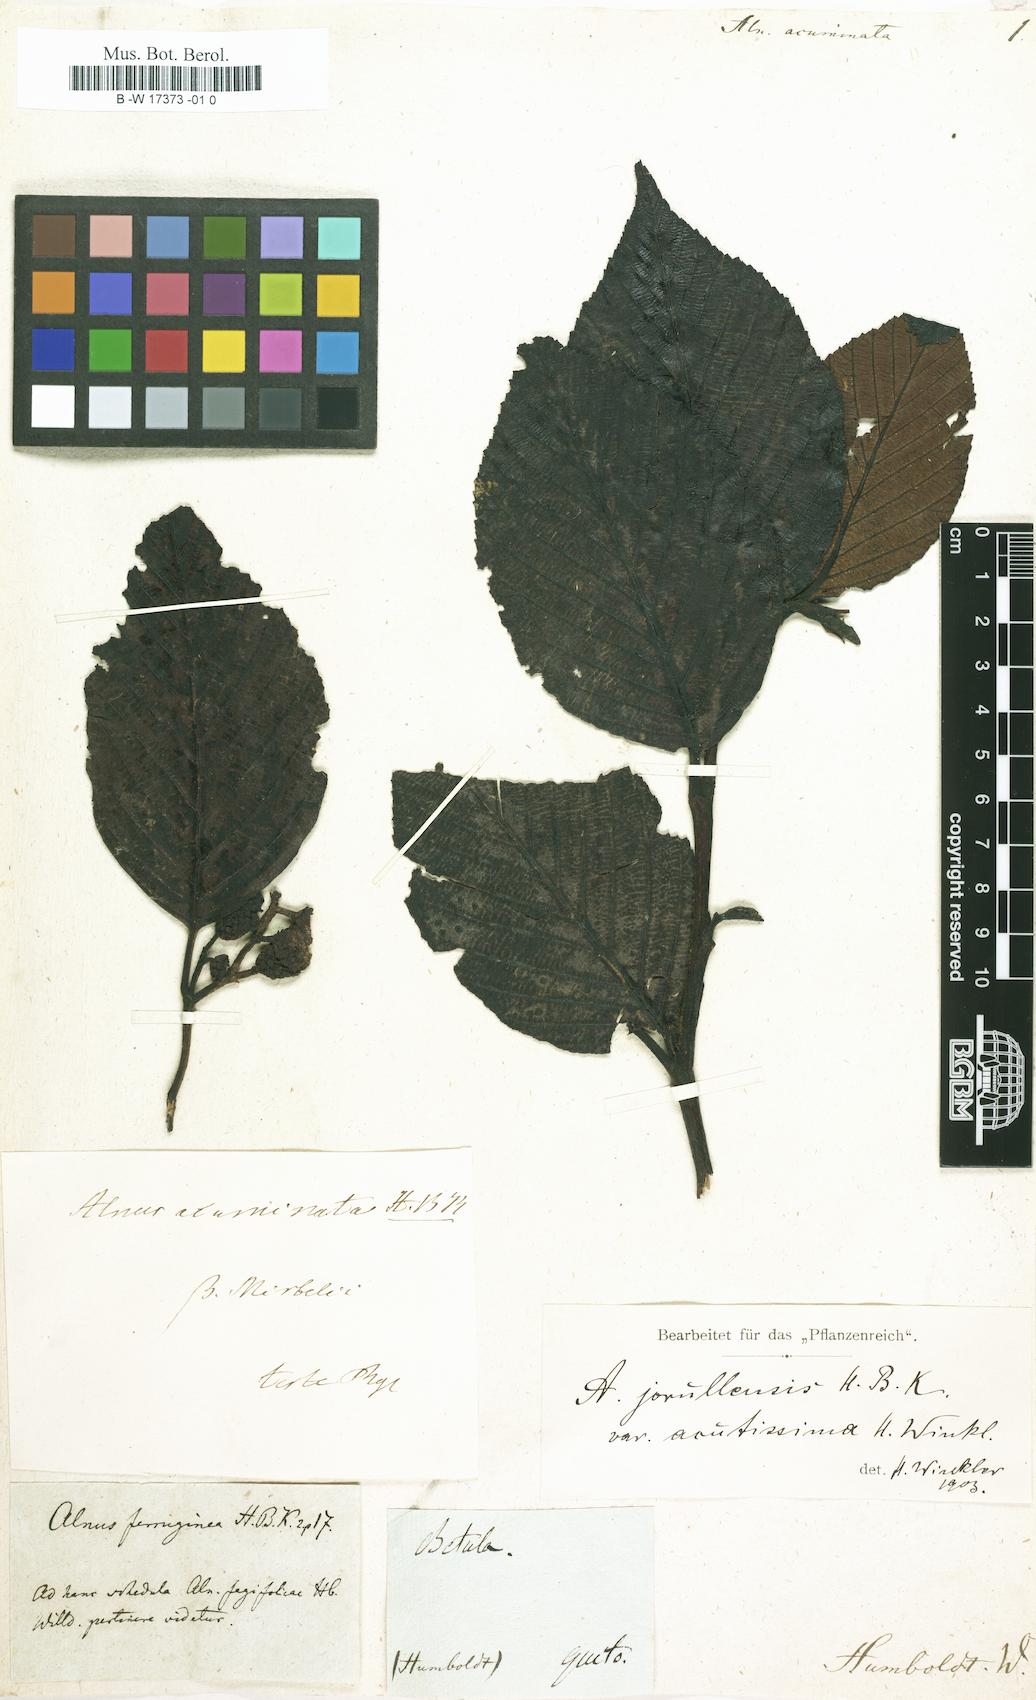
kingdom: Plantae
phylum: Tracheophyta
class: Magnoliopsida
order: Fagales
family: Betulaceae
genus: Alnus
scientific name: Alnus acuminata
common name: Alder
